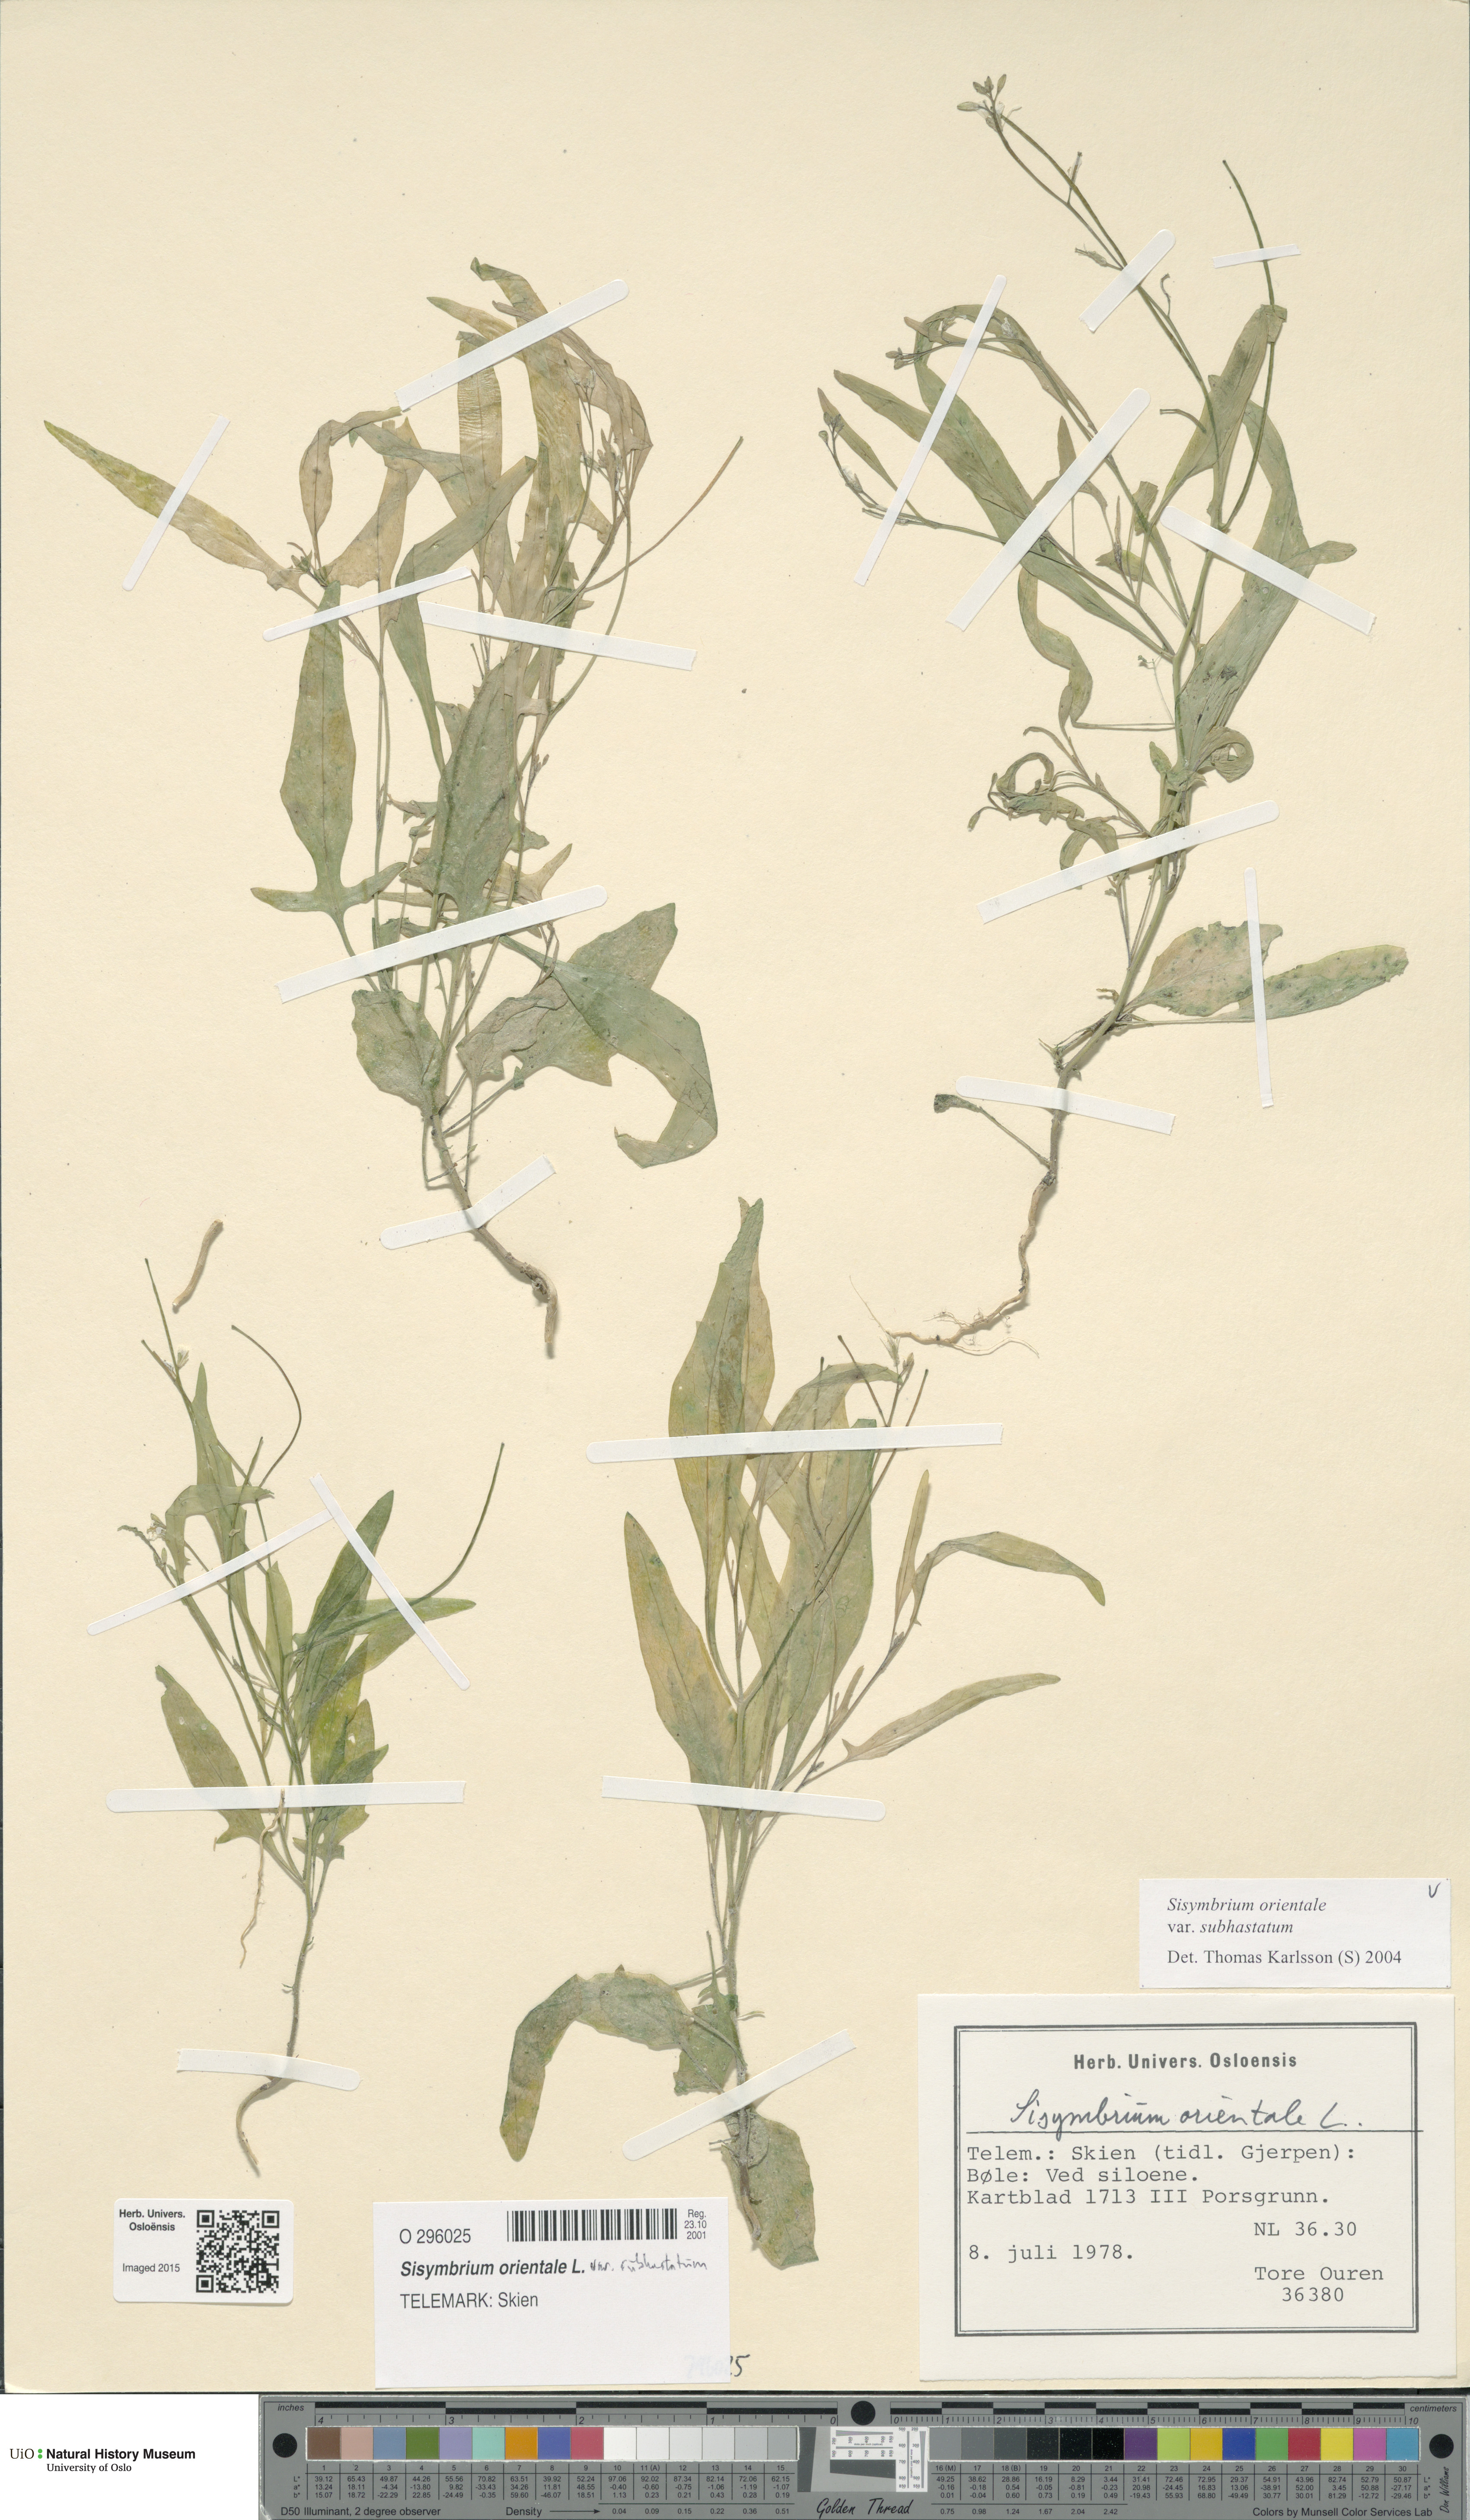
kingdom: Plantae
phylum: Tracheophyta
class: Magnoliopsida
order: Brassicales
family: Brassicaceae
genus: Sisymbrium
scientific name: Sisymbrium orientale
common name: Eastern rocket
